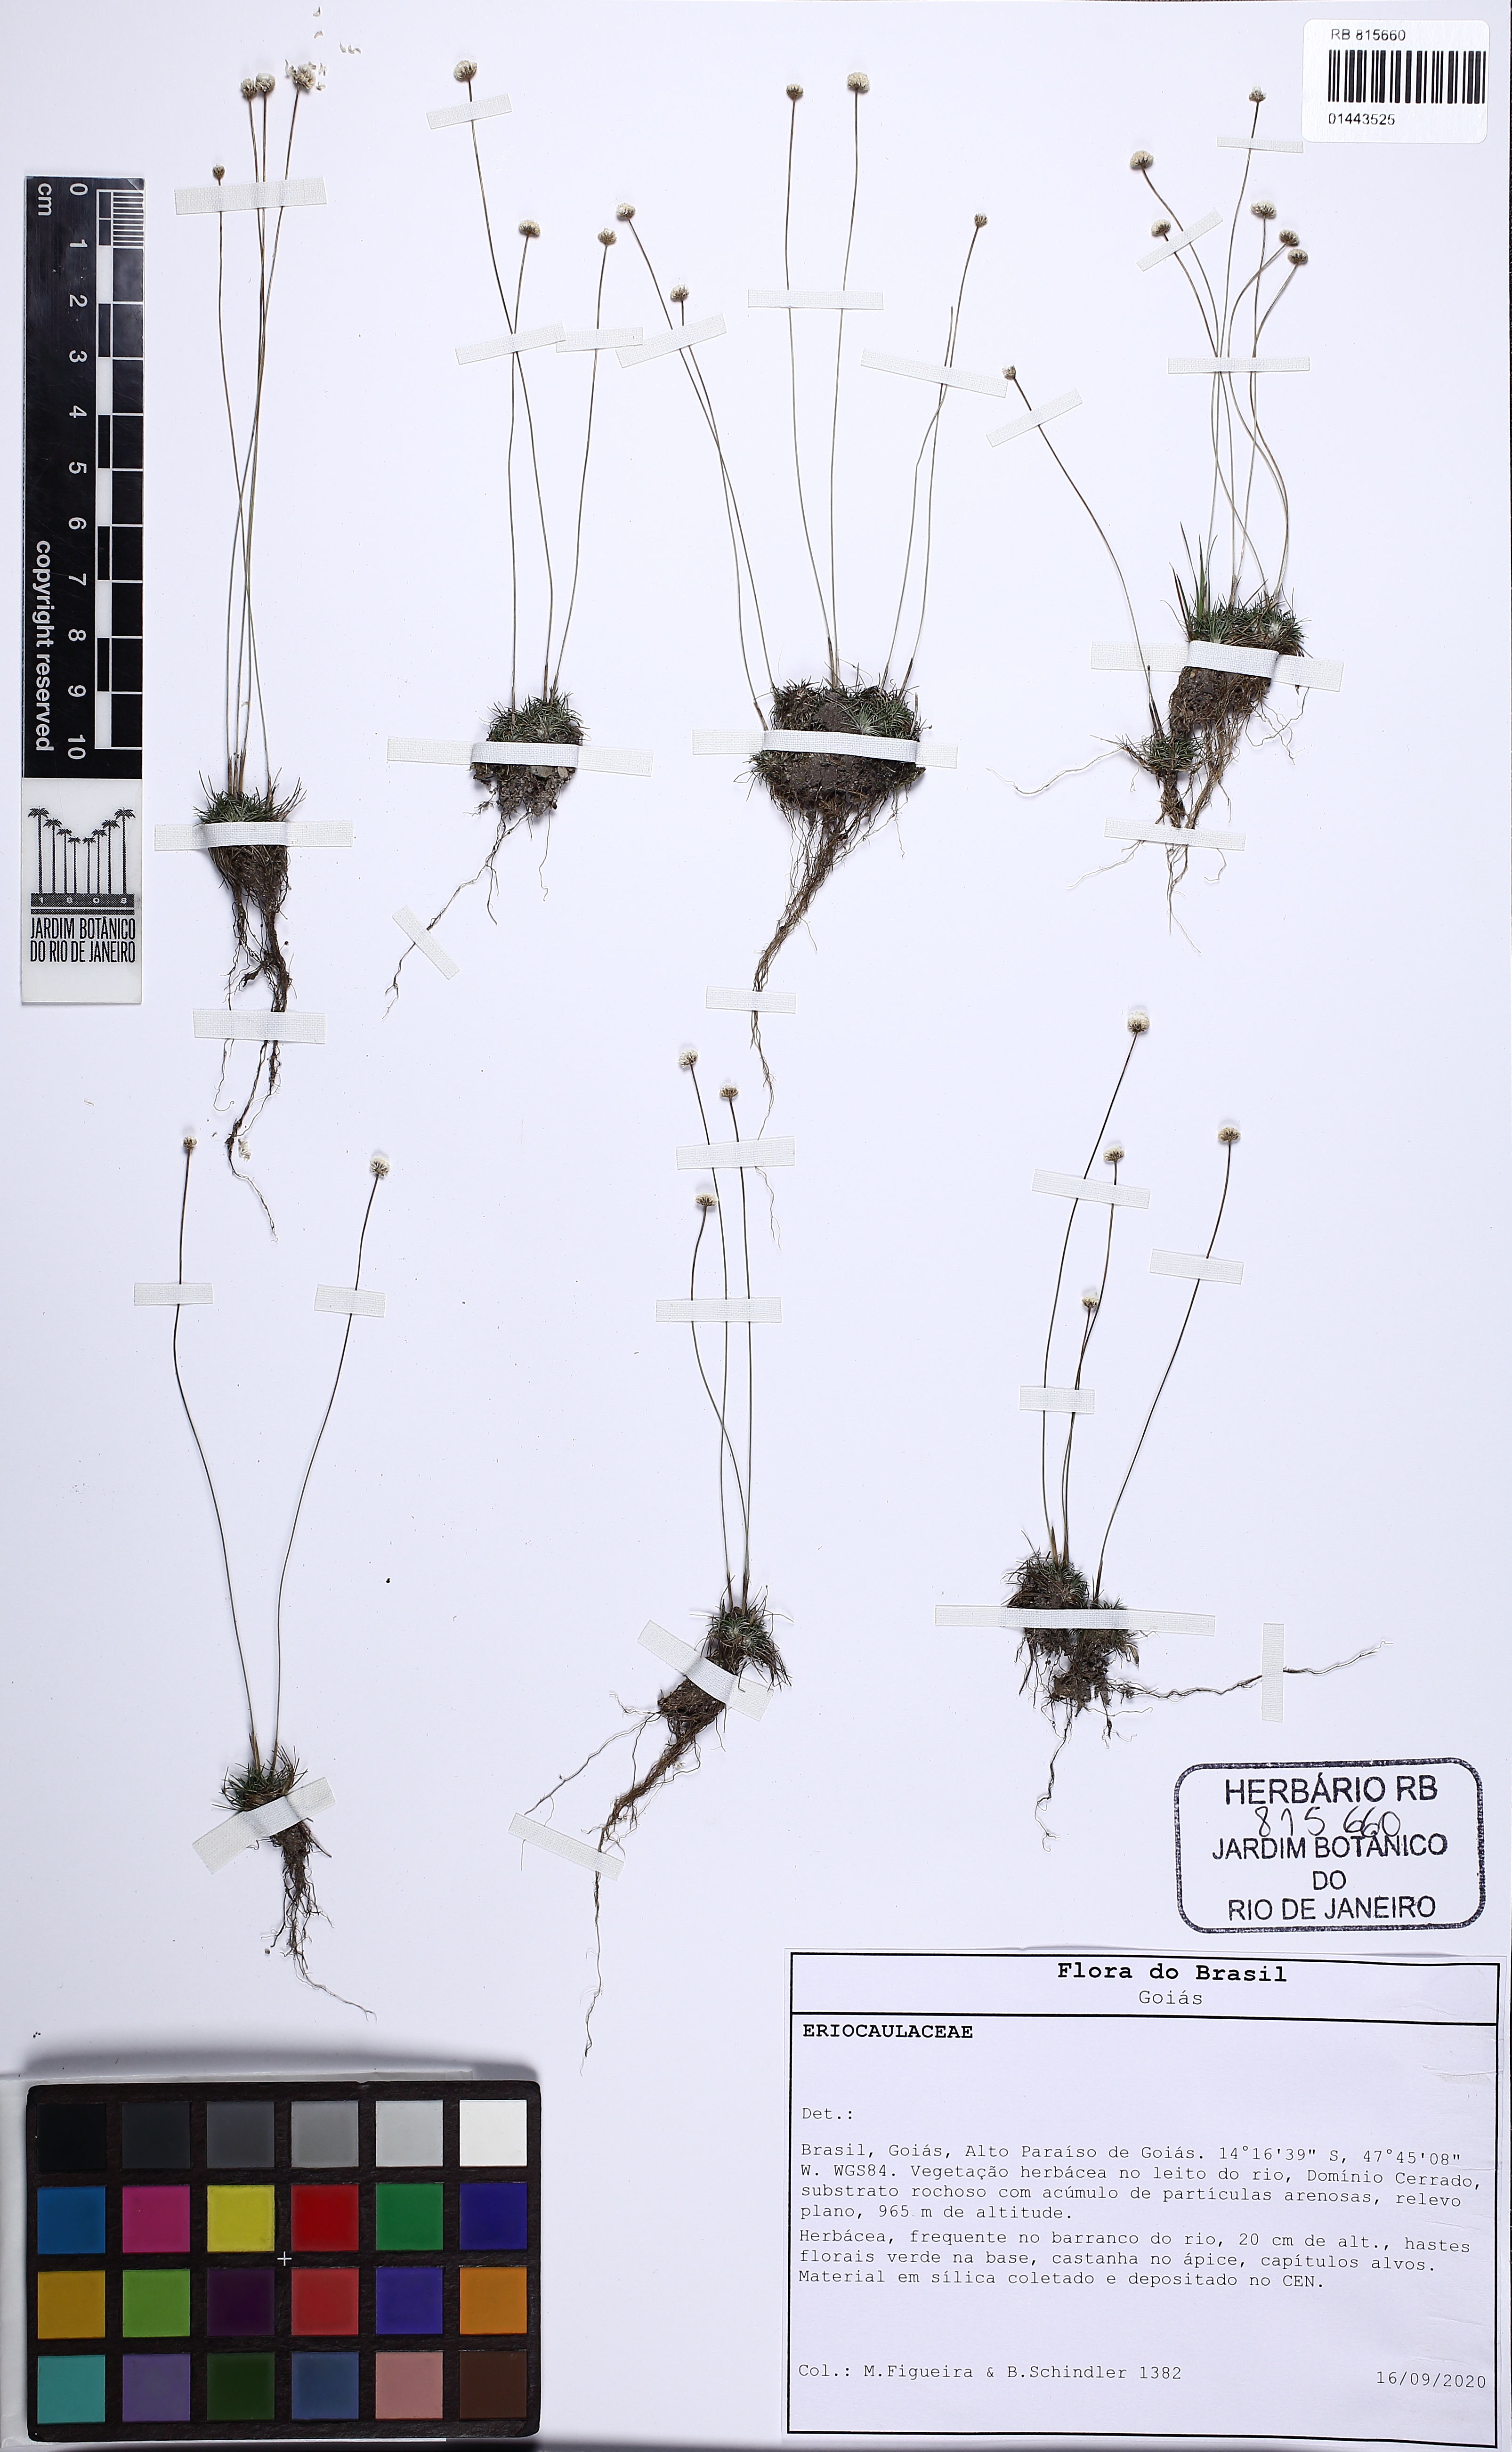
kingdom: Plantae
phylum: Tracheophyta
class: Liliopsida
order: Poales
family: Eriocaulaceae
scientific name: Eriocaulaceae
